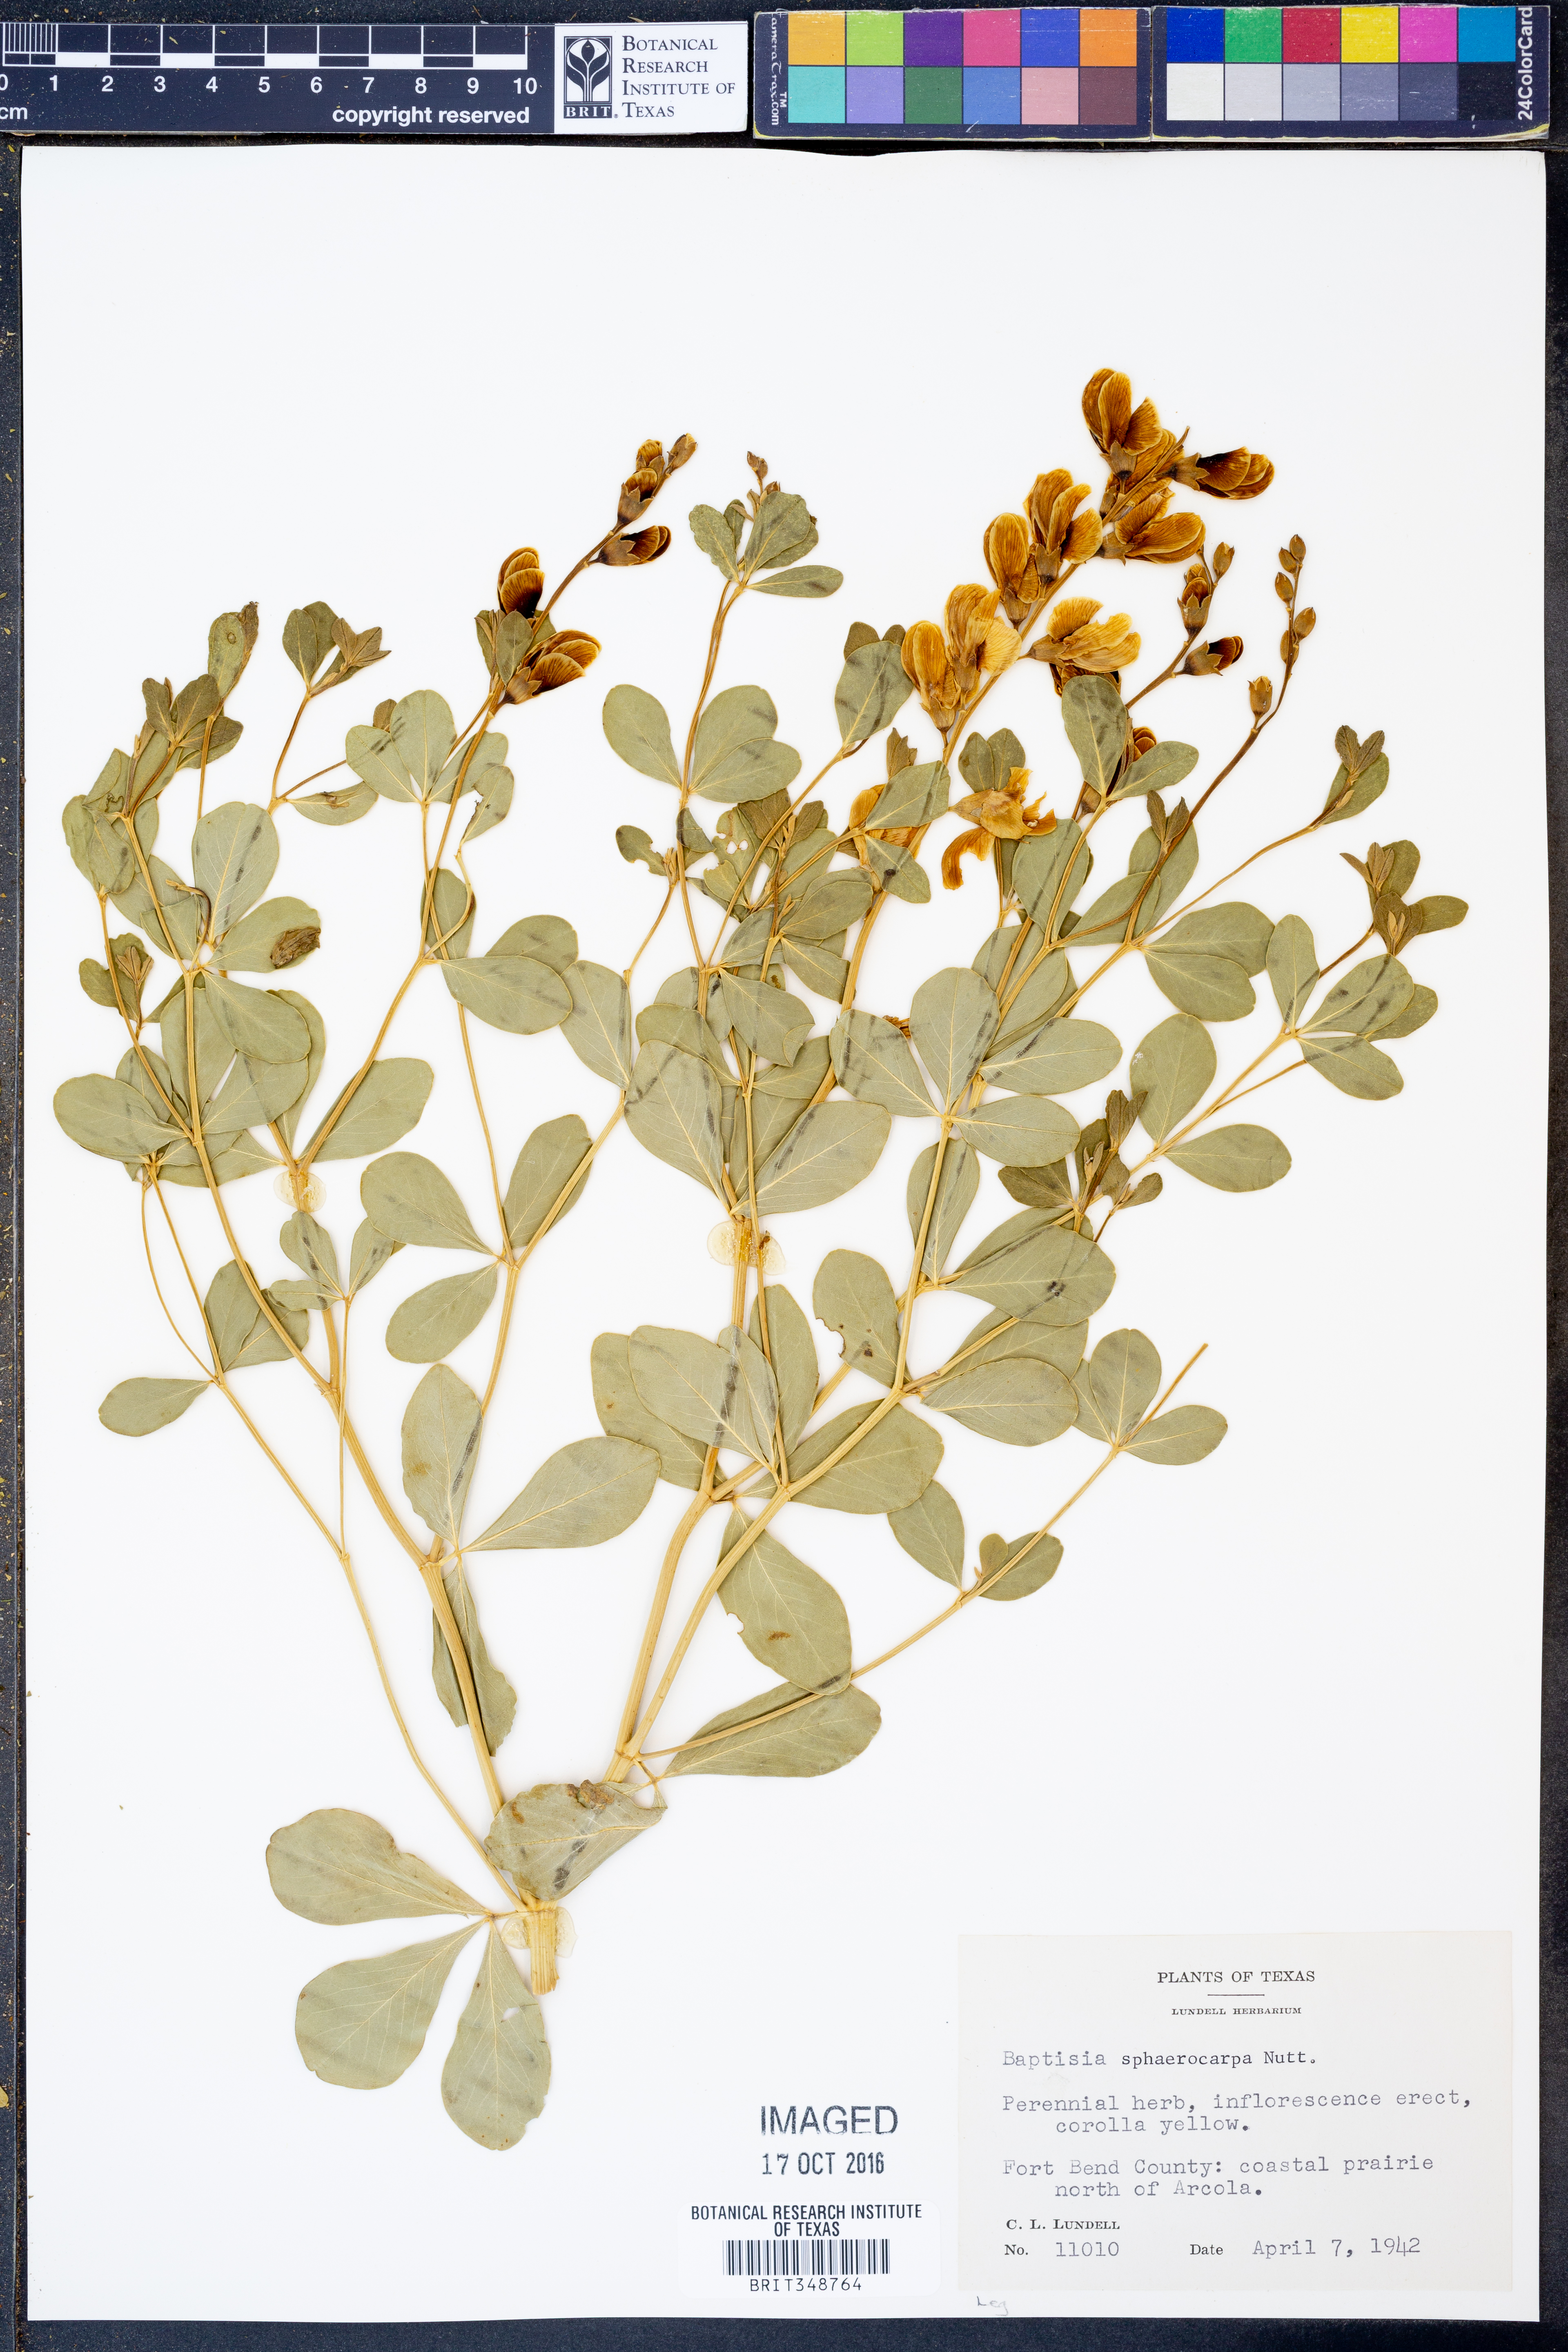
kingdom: Plantae
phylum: Tracheophyta
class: Magnoliopsida
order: Fabales
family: Fabaceae
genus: Baptisia
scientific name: Baptisia sphaerocarpa
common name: Round wild indigo
